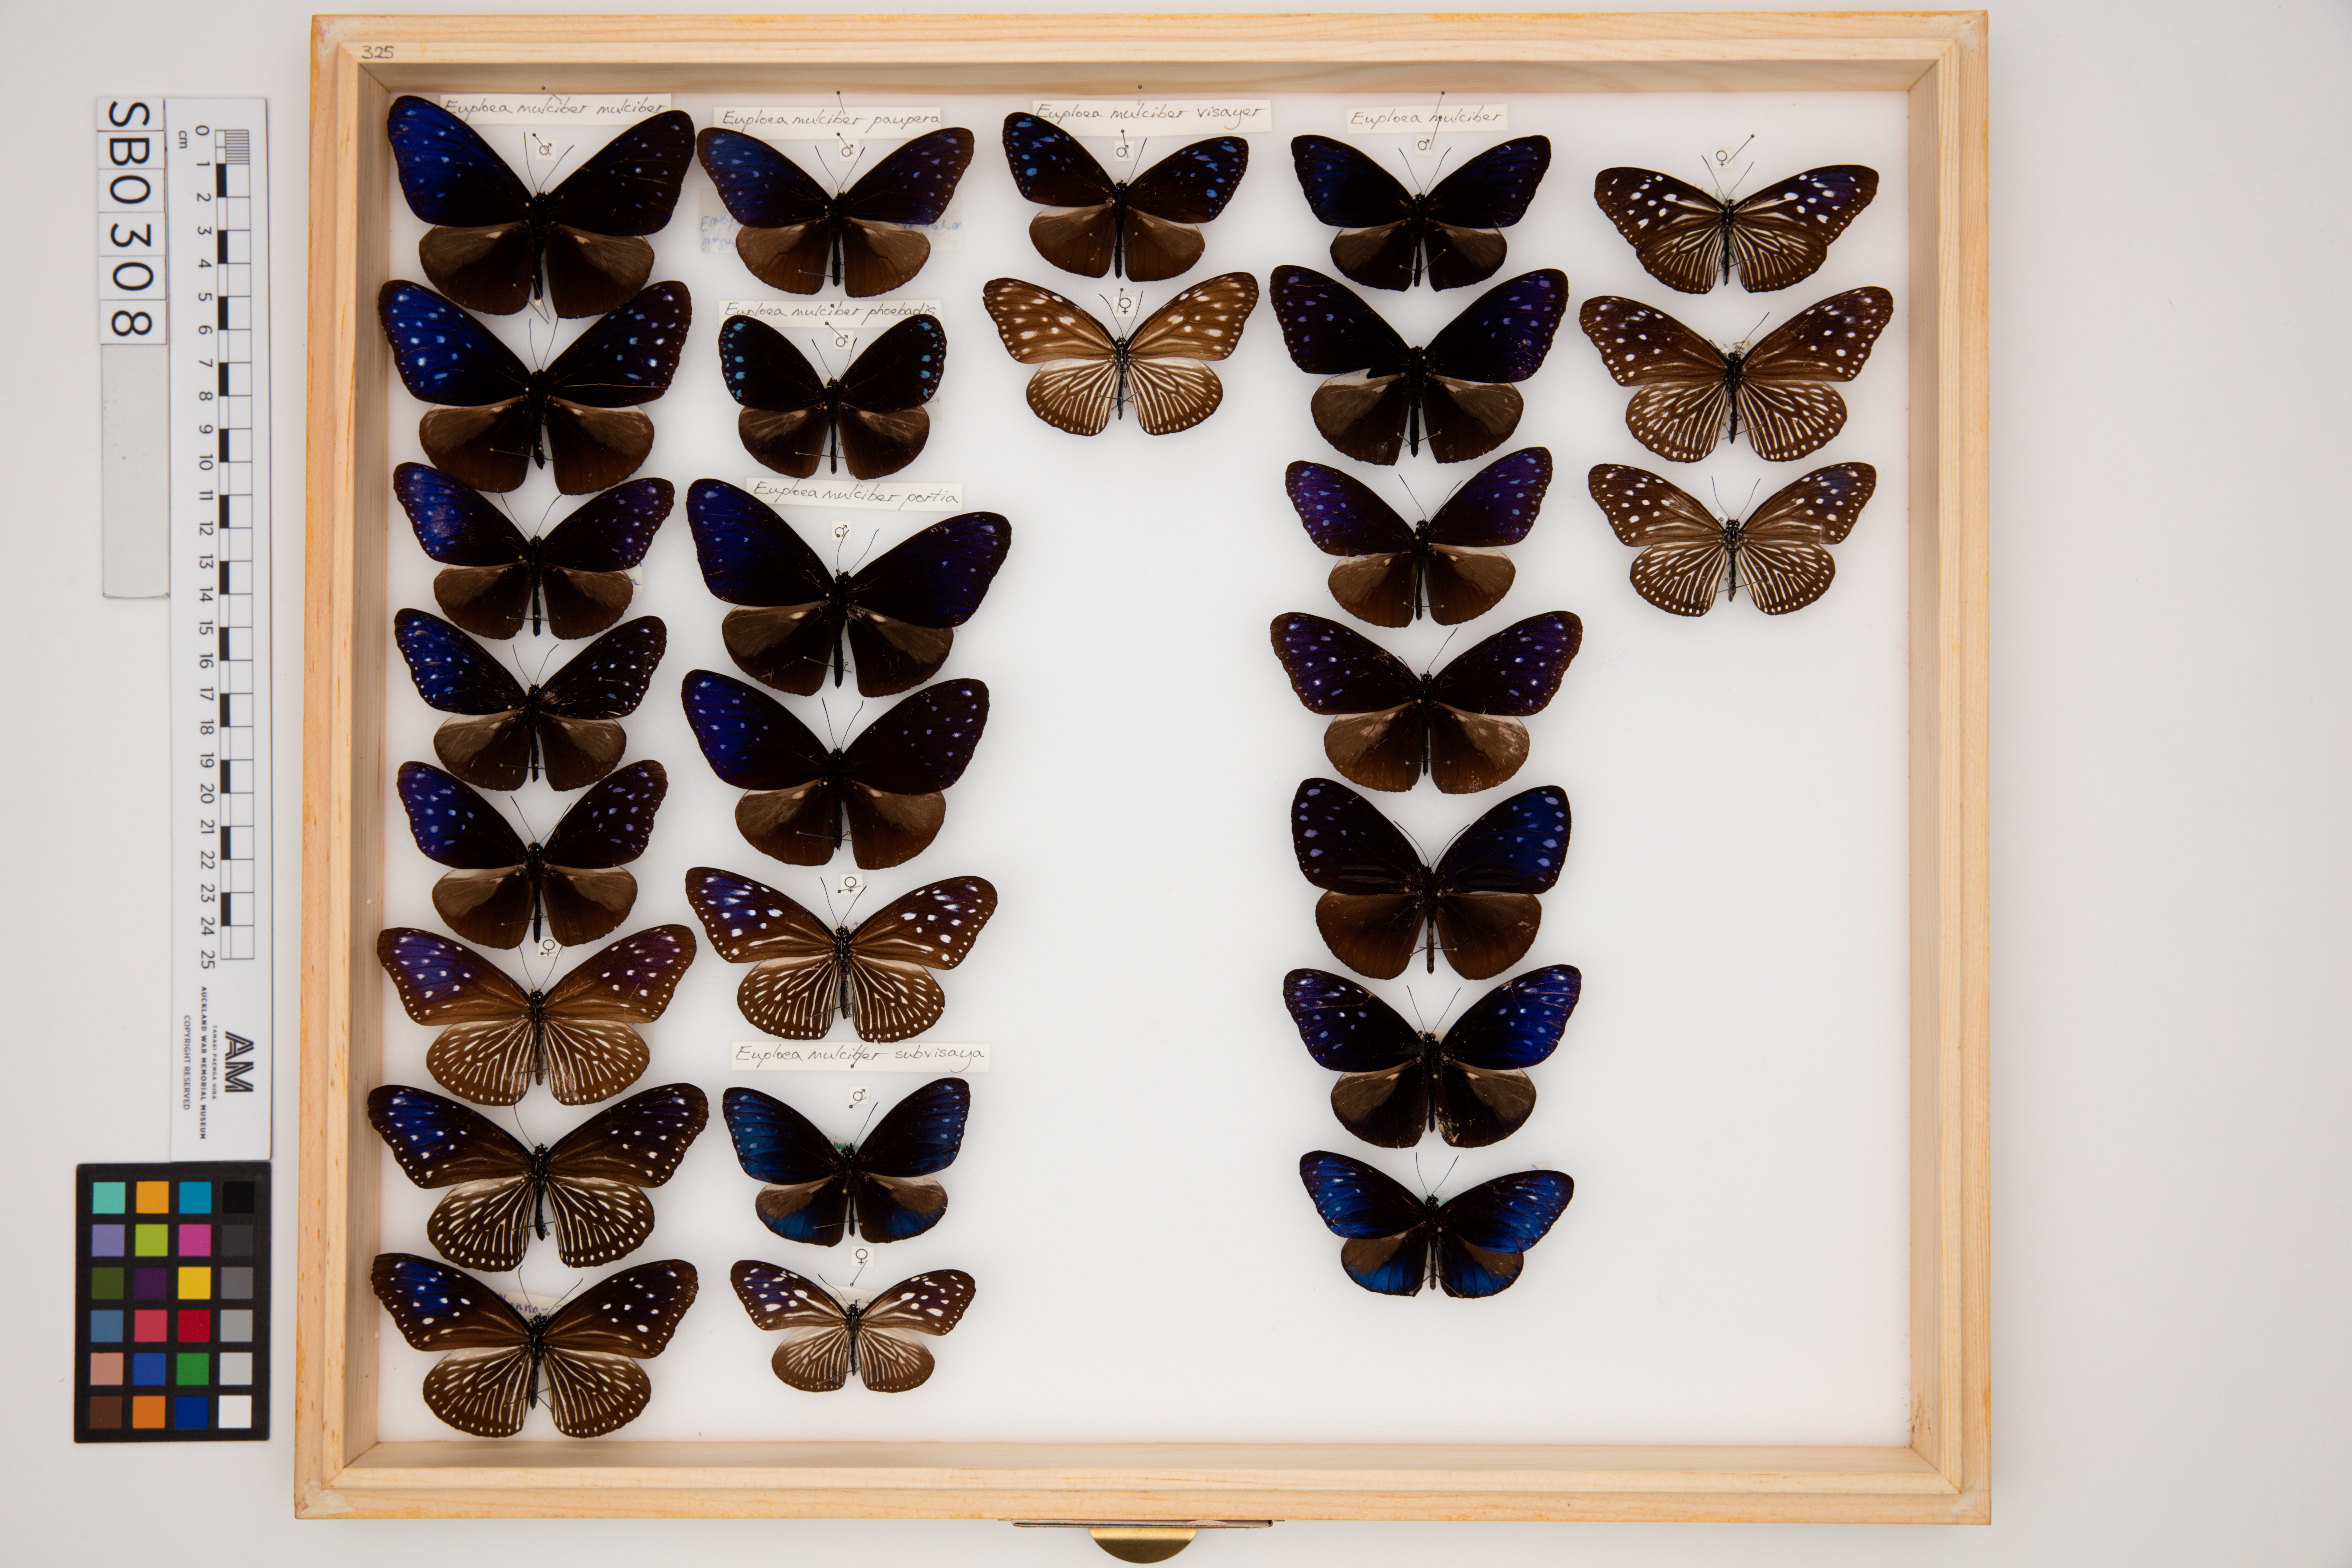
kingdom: Animalia
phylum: Arthropoda
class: Insecta
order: Lepidoptera
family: Nymphalidae
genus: Euploea
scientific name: Euploea mulciber
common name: Striped blue crow butterfly
